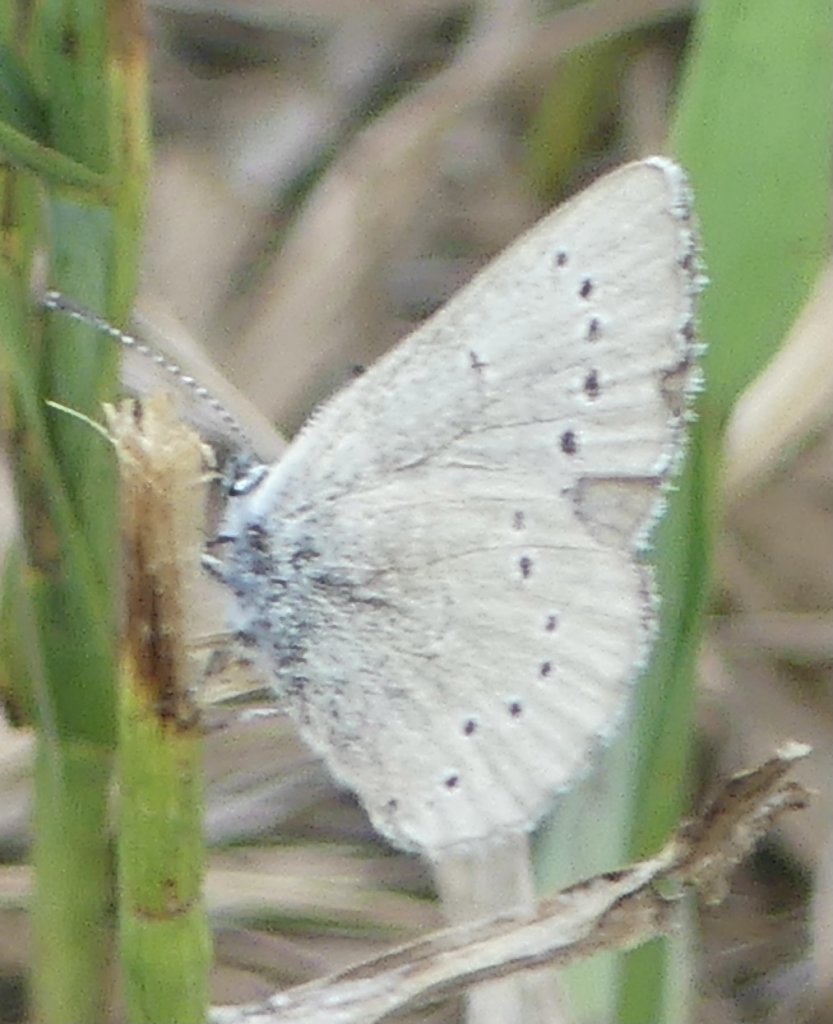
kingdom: Animalia
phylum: Arthropoda
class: Insecta
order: Lepidoptera
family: Lycaenidae
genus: Glaucopsyche
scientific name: Glaucopsyche lygdamus
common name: Silvery Blue
